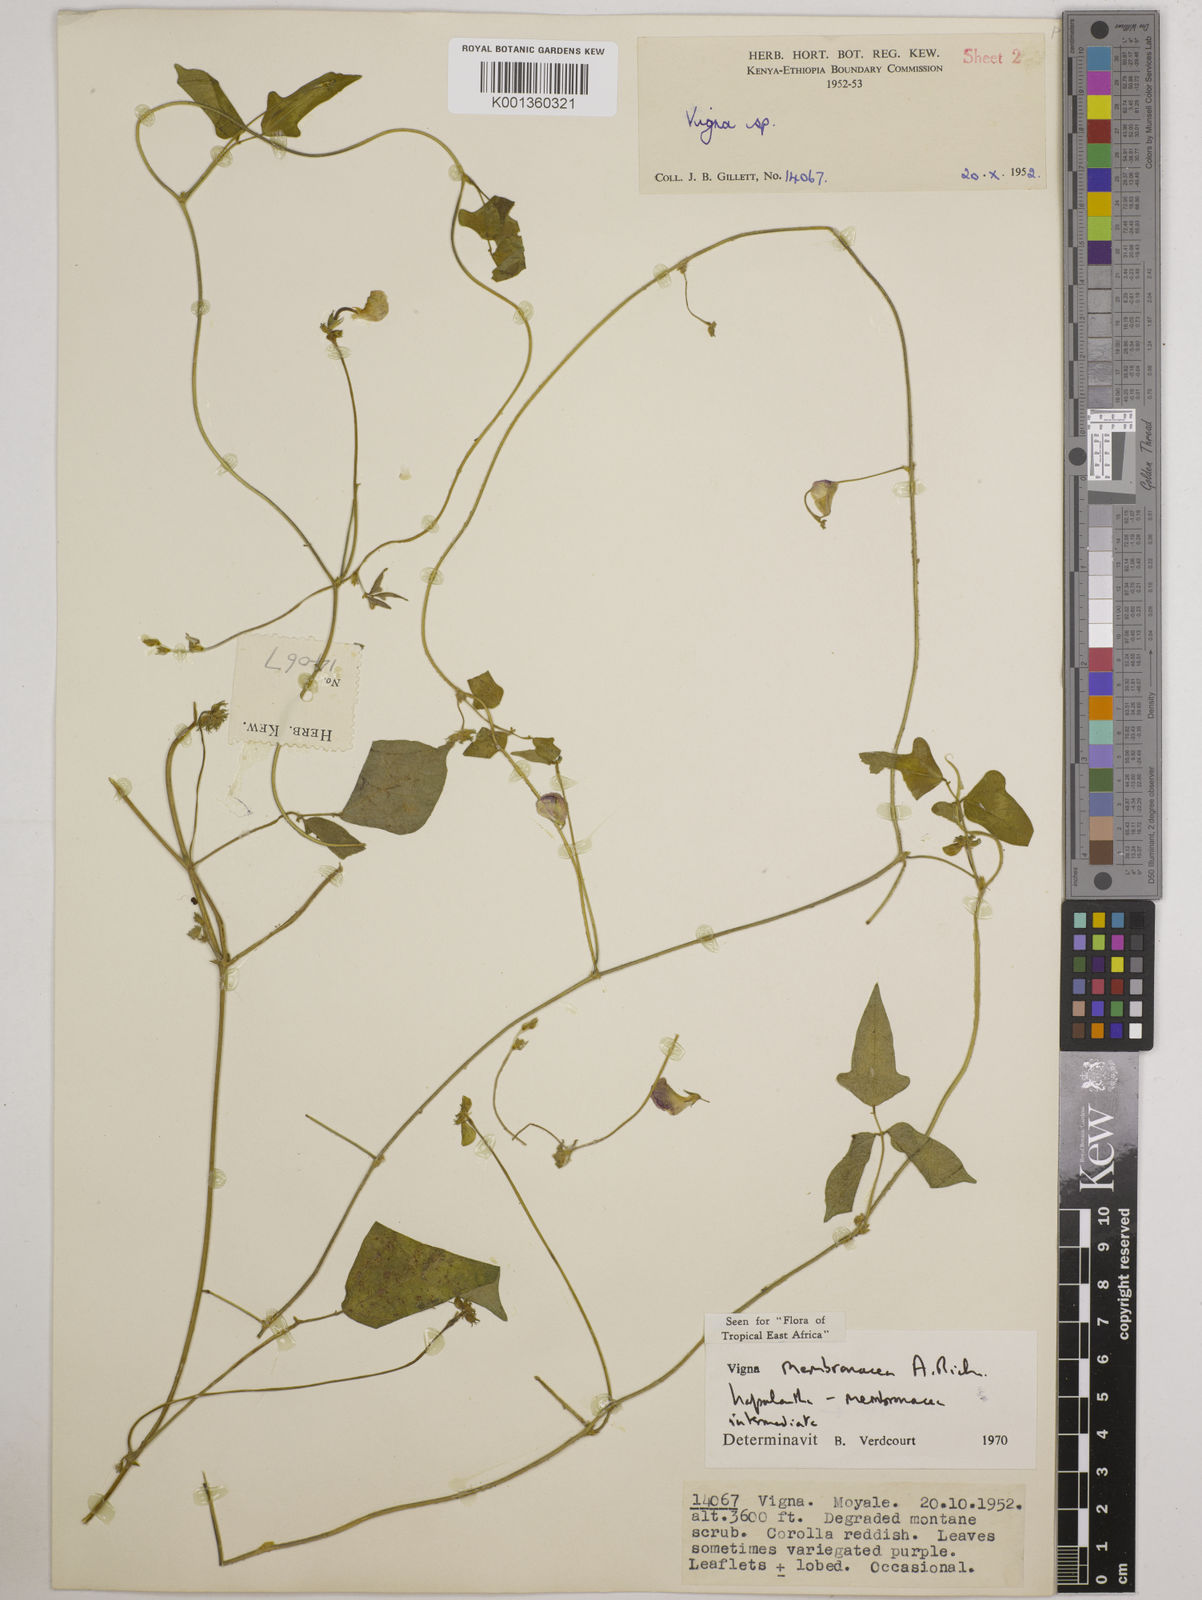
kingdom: Plantae
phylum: Tracheophyta
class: Magnoliopsida
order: Fabales
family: Fabaceae
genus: Vigna
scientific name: Vigna
